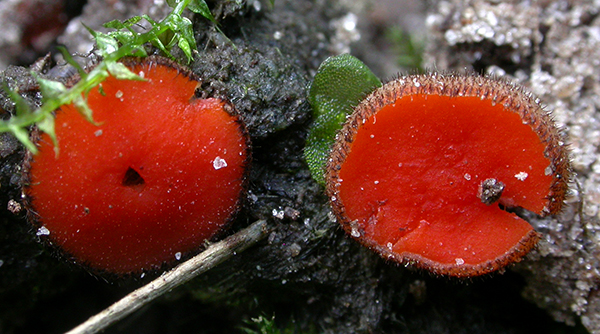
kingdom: Fungi
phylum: Ascomycota
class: Pezizomycetes
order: Pezizales
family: Pyronemataceae
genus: Scutellinia
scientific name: Scutellinia legaliae
